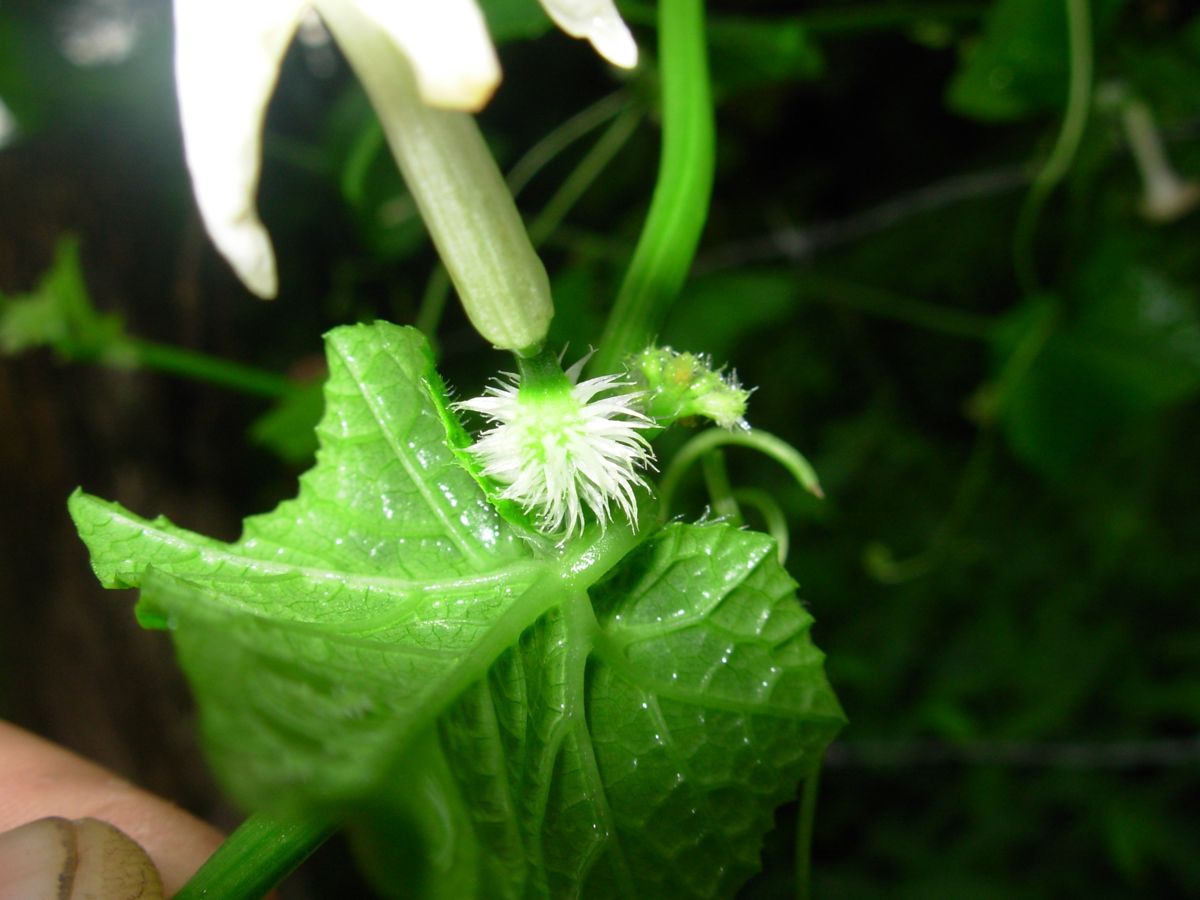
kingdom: Plantae
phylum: Tracheophyta
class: Magnoliopsida
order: Cucurbitales
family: Cucurbitaceae
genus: Cyclanthera
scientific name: Cyclanthera filiformis
